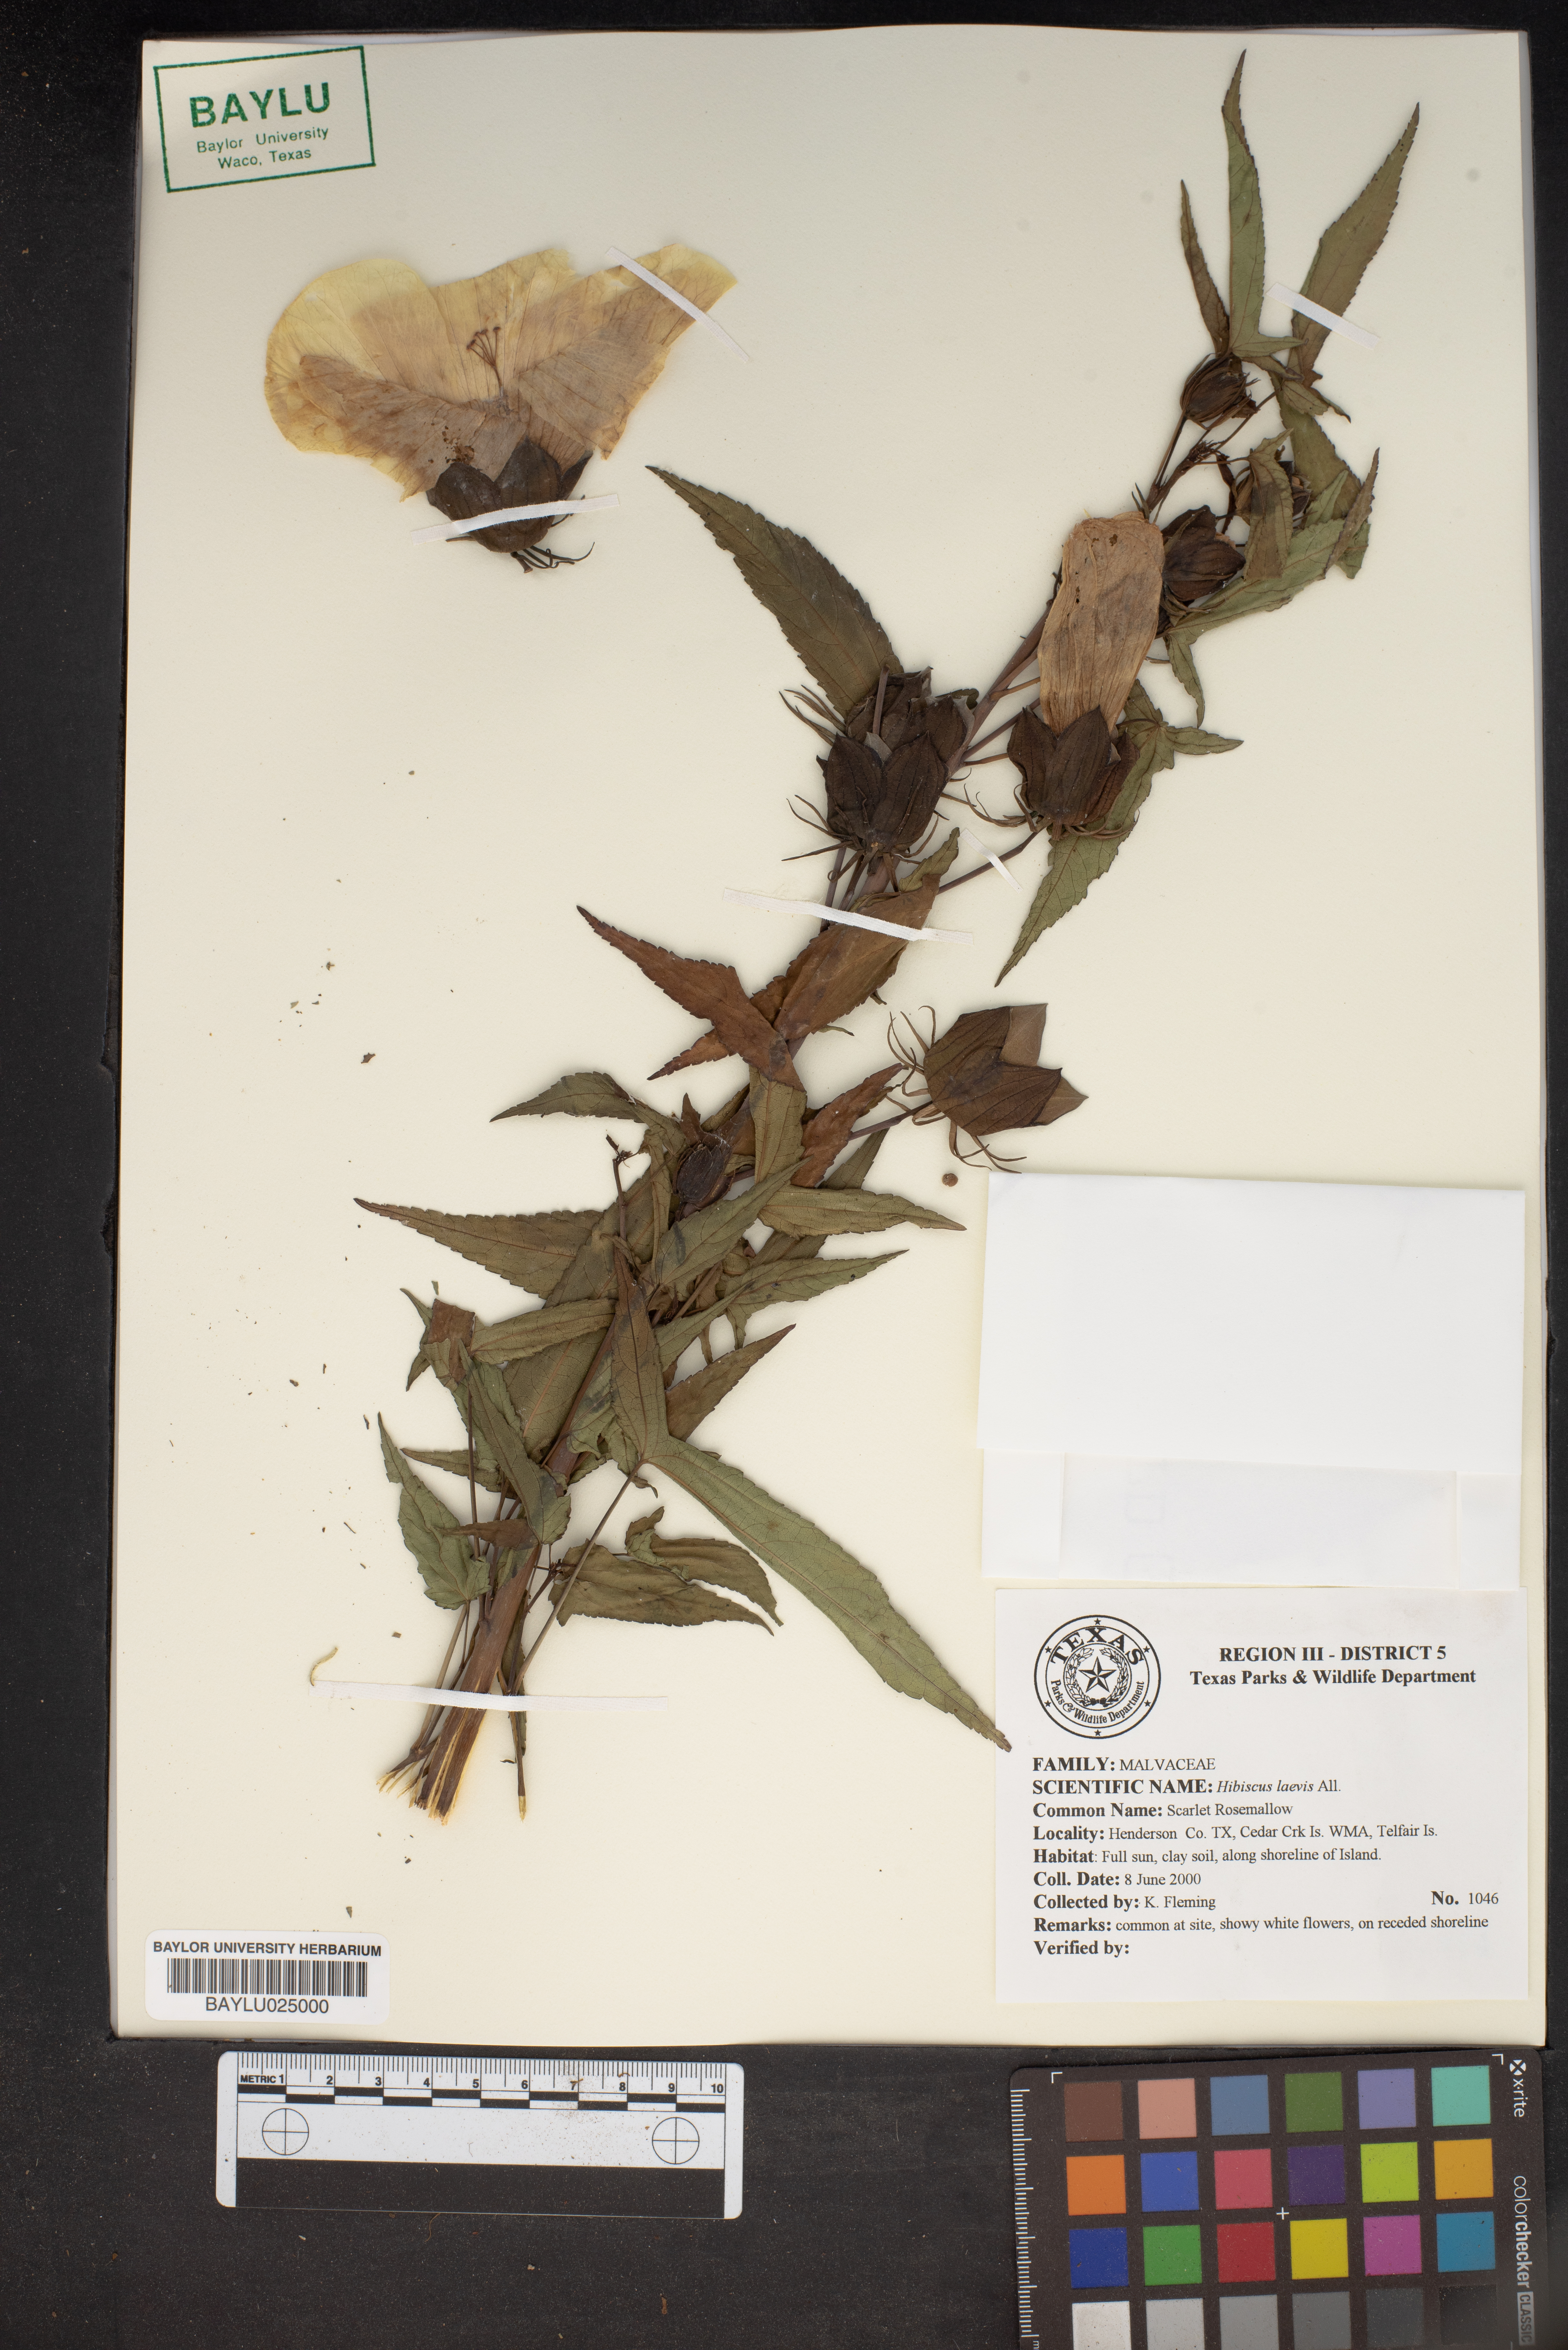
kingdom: Plantae
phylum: Tracheophyta
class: Magnoliopsida
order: Malvales
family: Malvaceae
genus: Hibiscus
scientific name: Hibiscus laevis
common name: Scarlet rose-mallow
